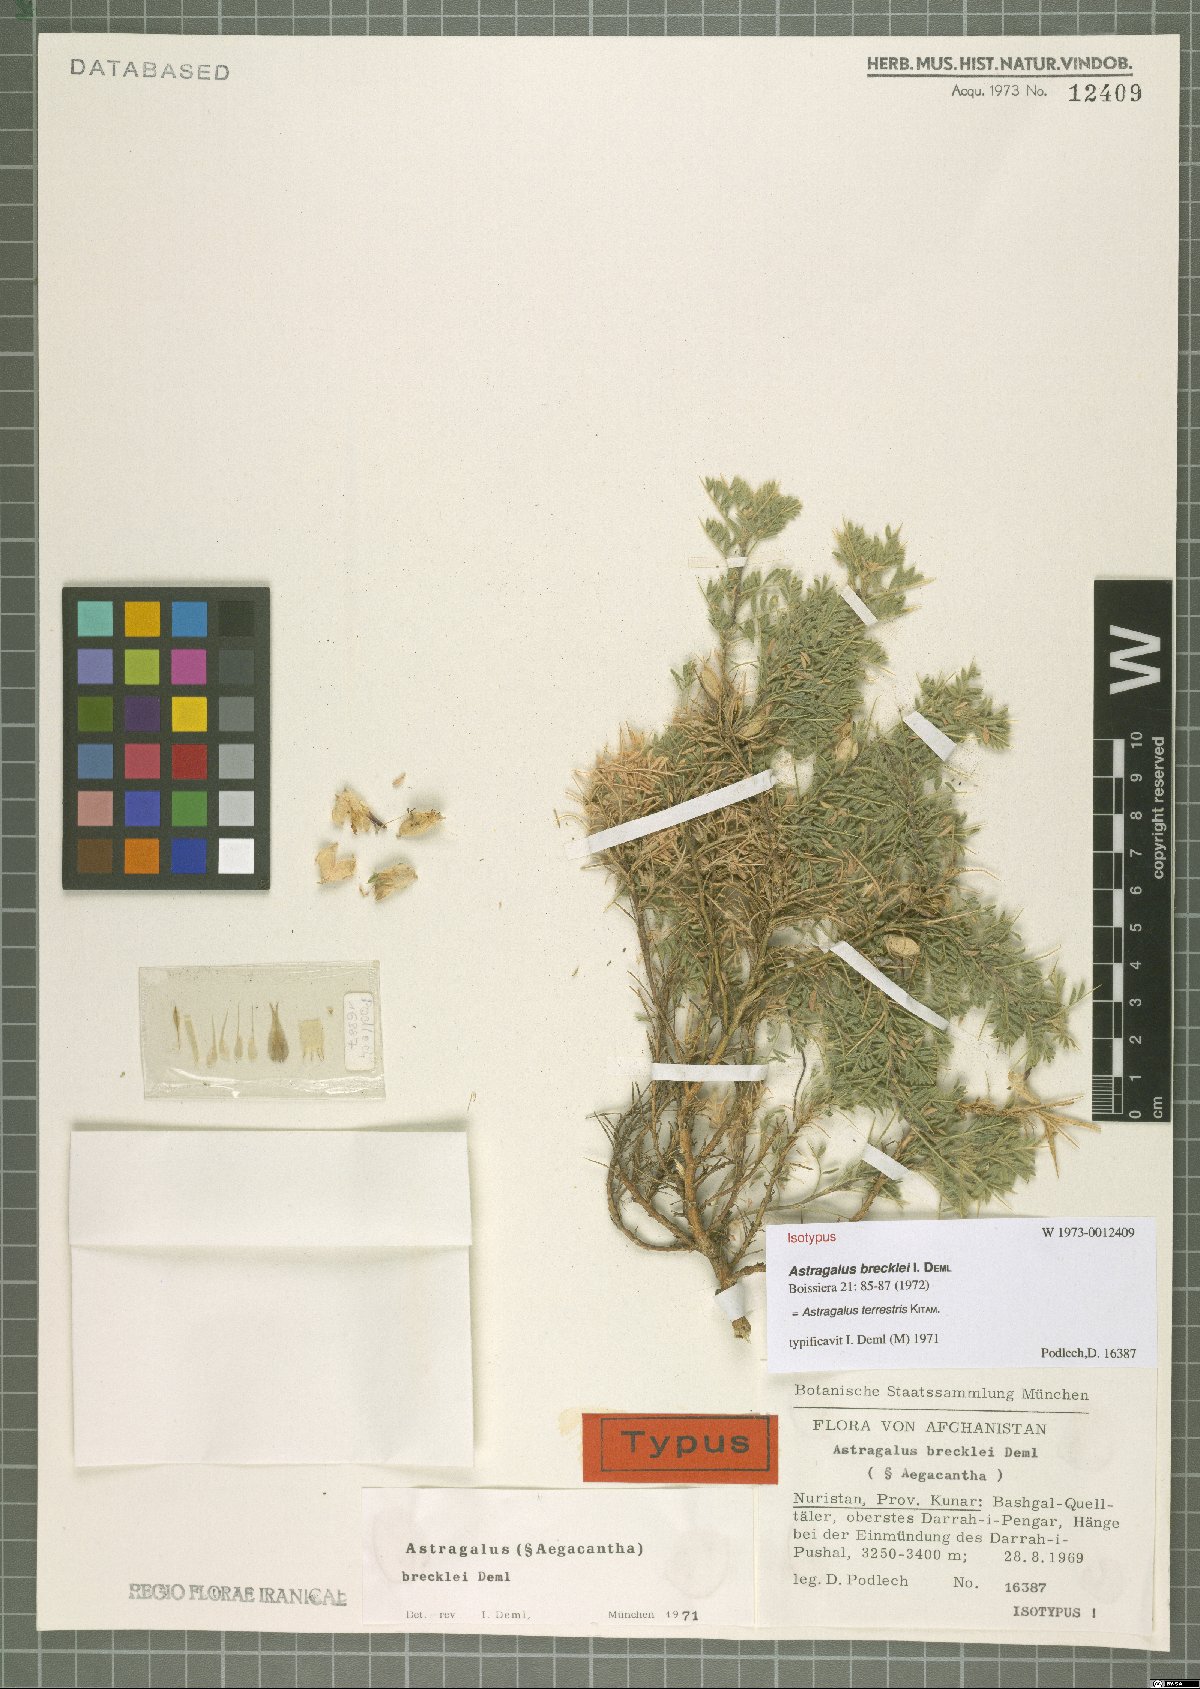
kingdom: Plantae
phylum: Tracheophyta
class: Magnoliopsida
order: Fabales
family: Fabaceae
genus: Astragalus
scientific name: Astragalus terrestris
